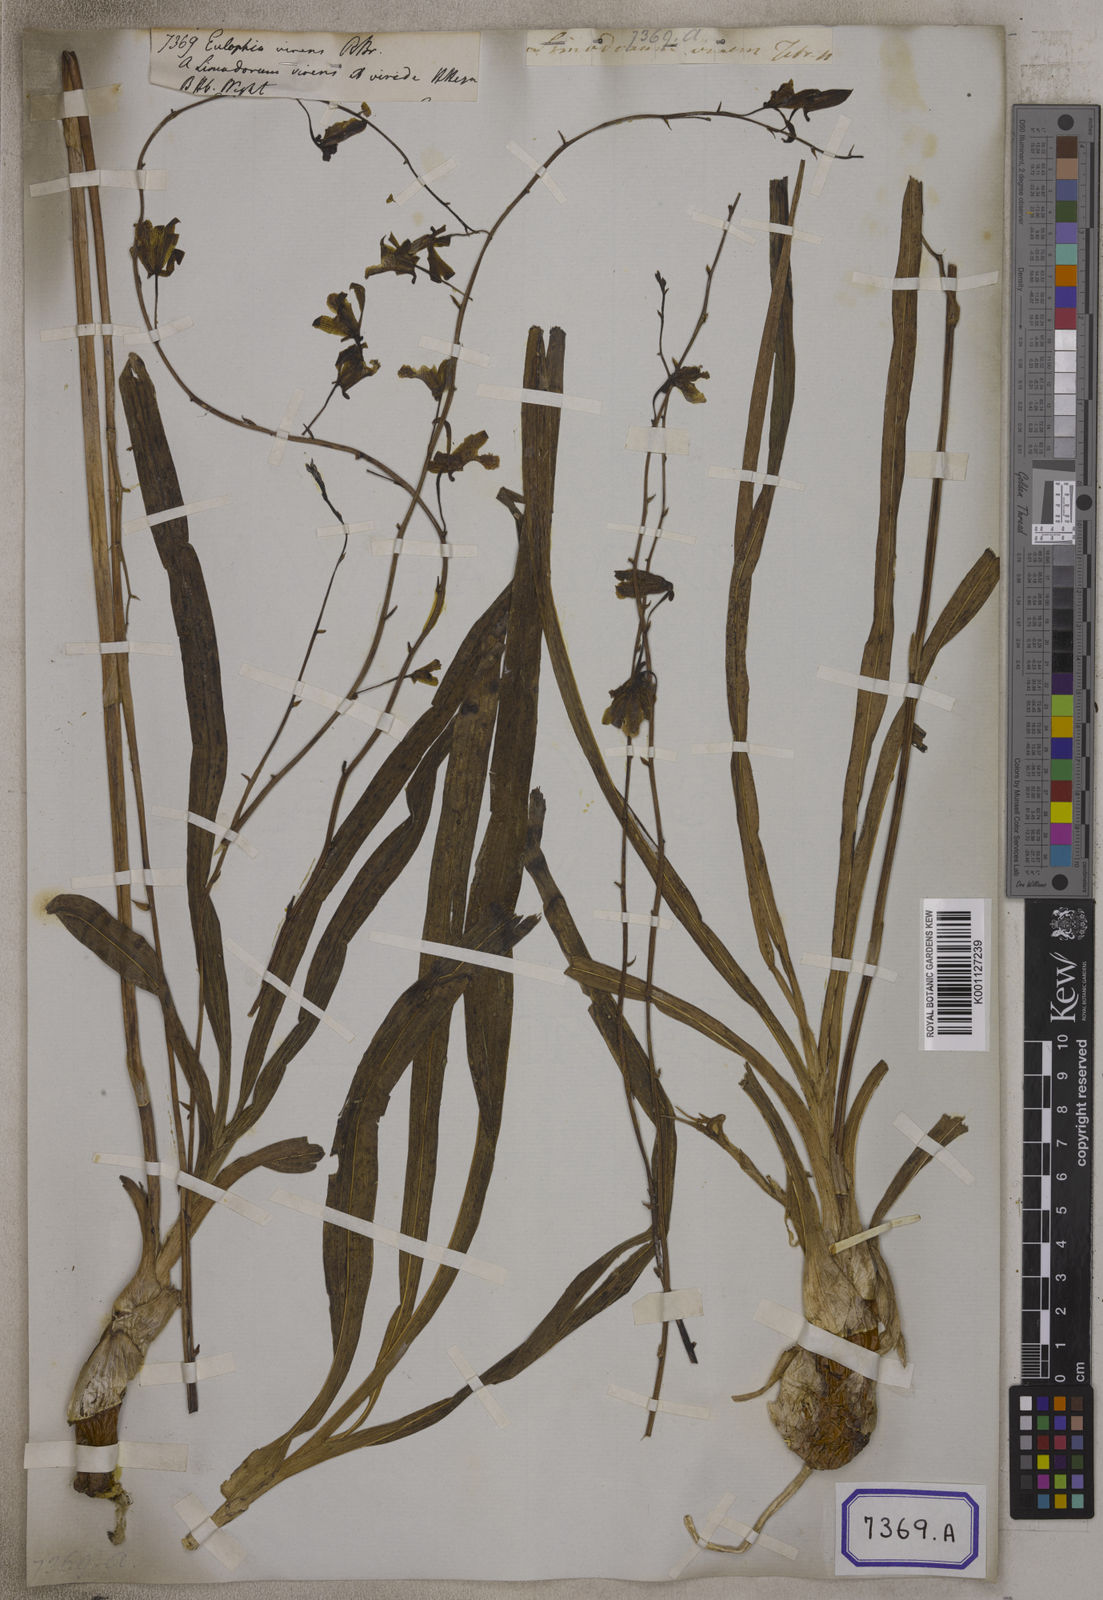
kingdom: Plantae
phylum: Tracheophyta
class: Liliopsida
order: Asparagales
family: Orchidaceae
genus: Eulophia
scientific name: Eulophia
